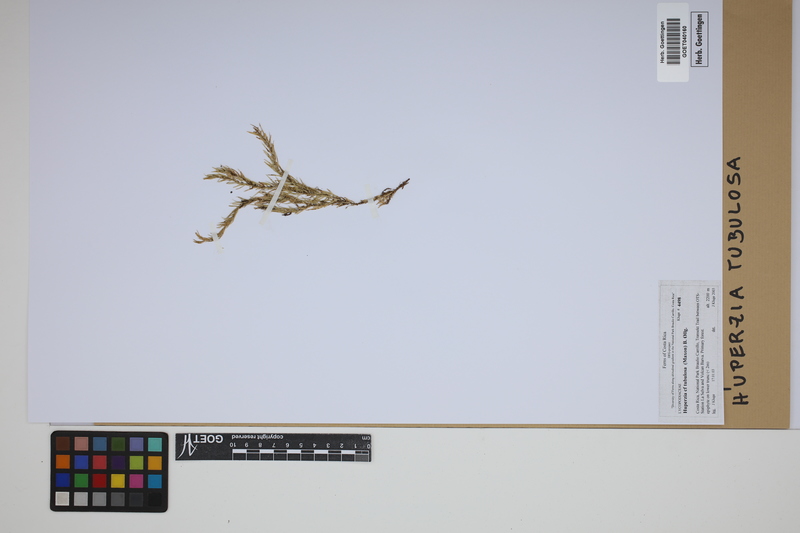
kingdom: Plantae
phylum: Tracheophyta
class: Lycopodiopsida
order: Lycopodiales
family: Lycopodiaceae
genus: Phlegmariurus
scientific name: Phlegmariurus tubulosus
